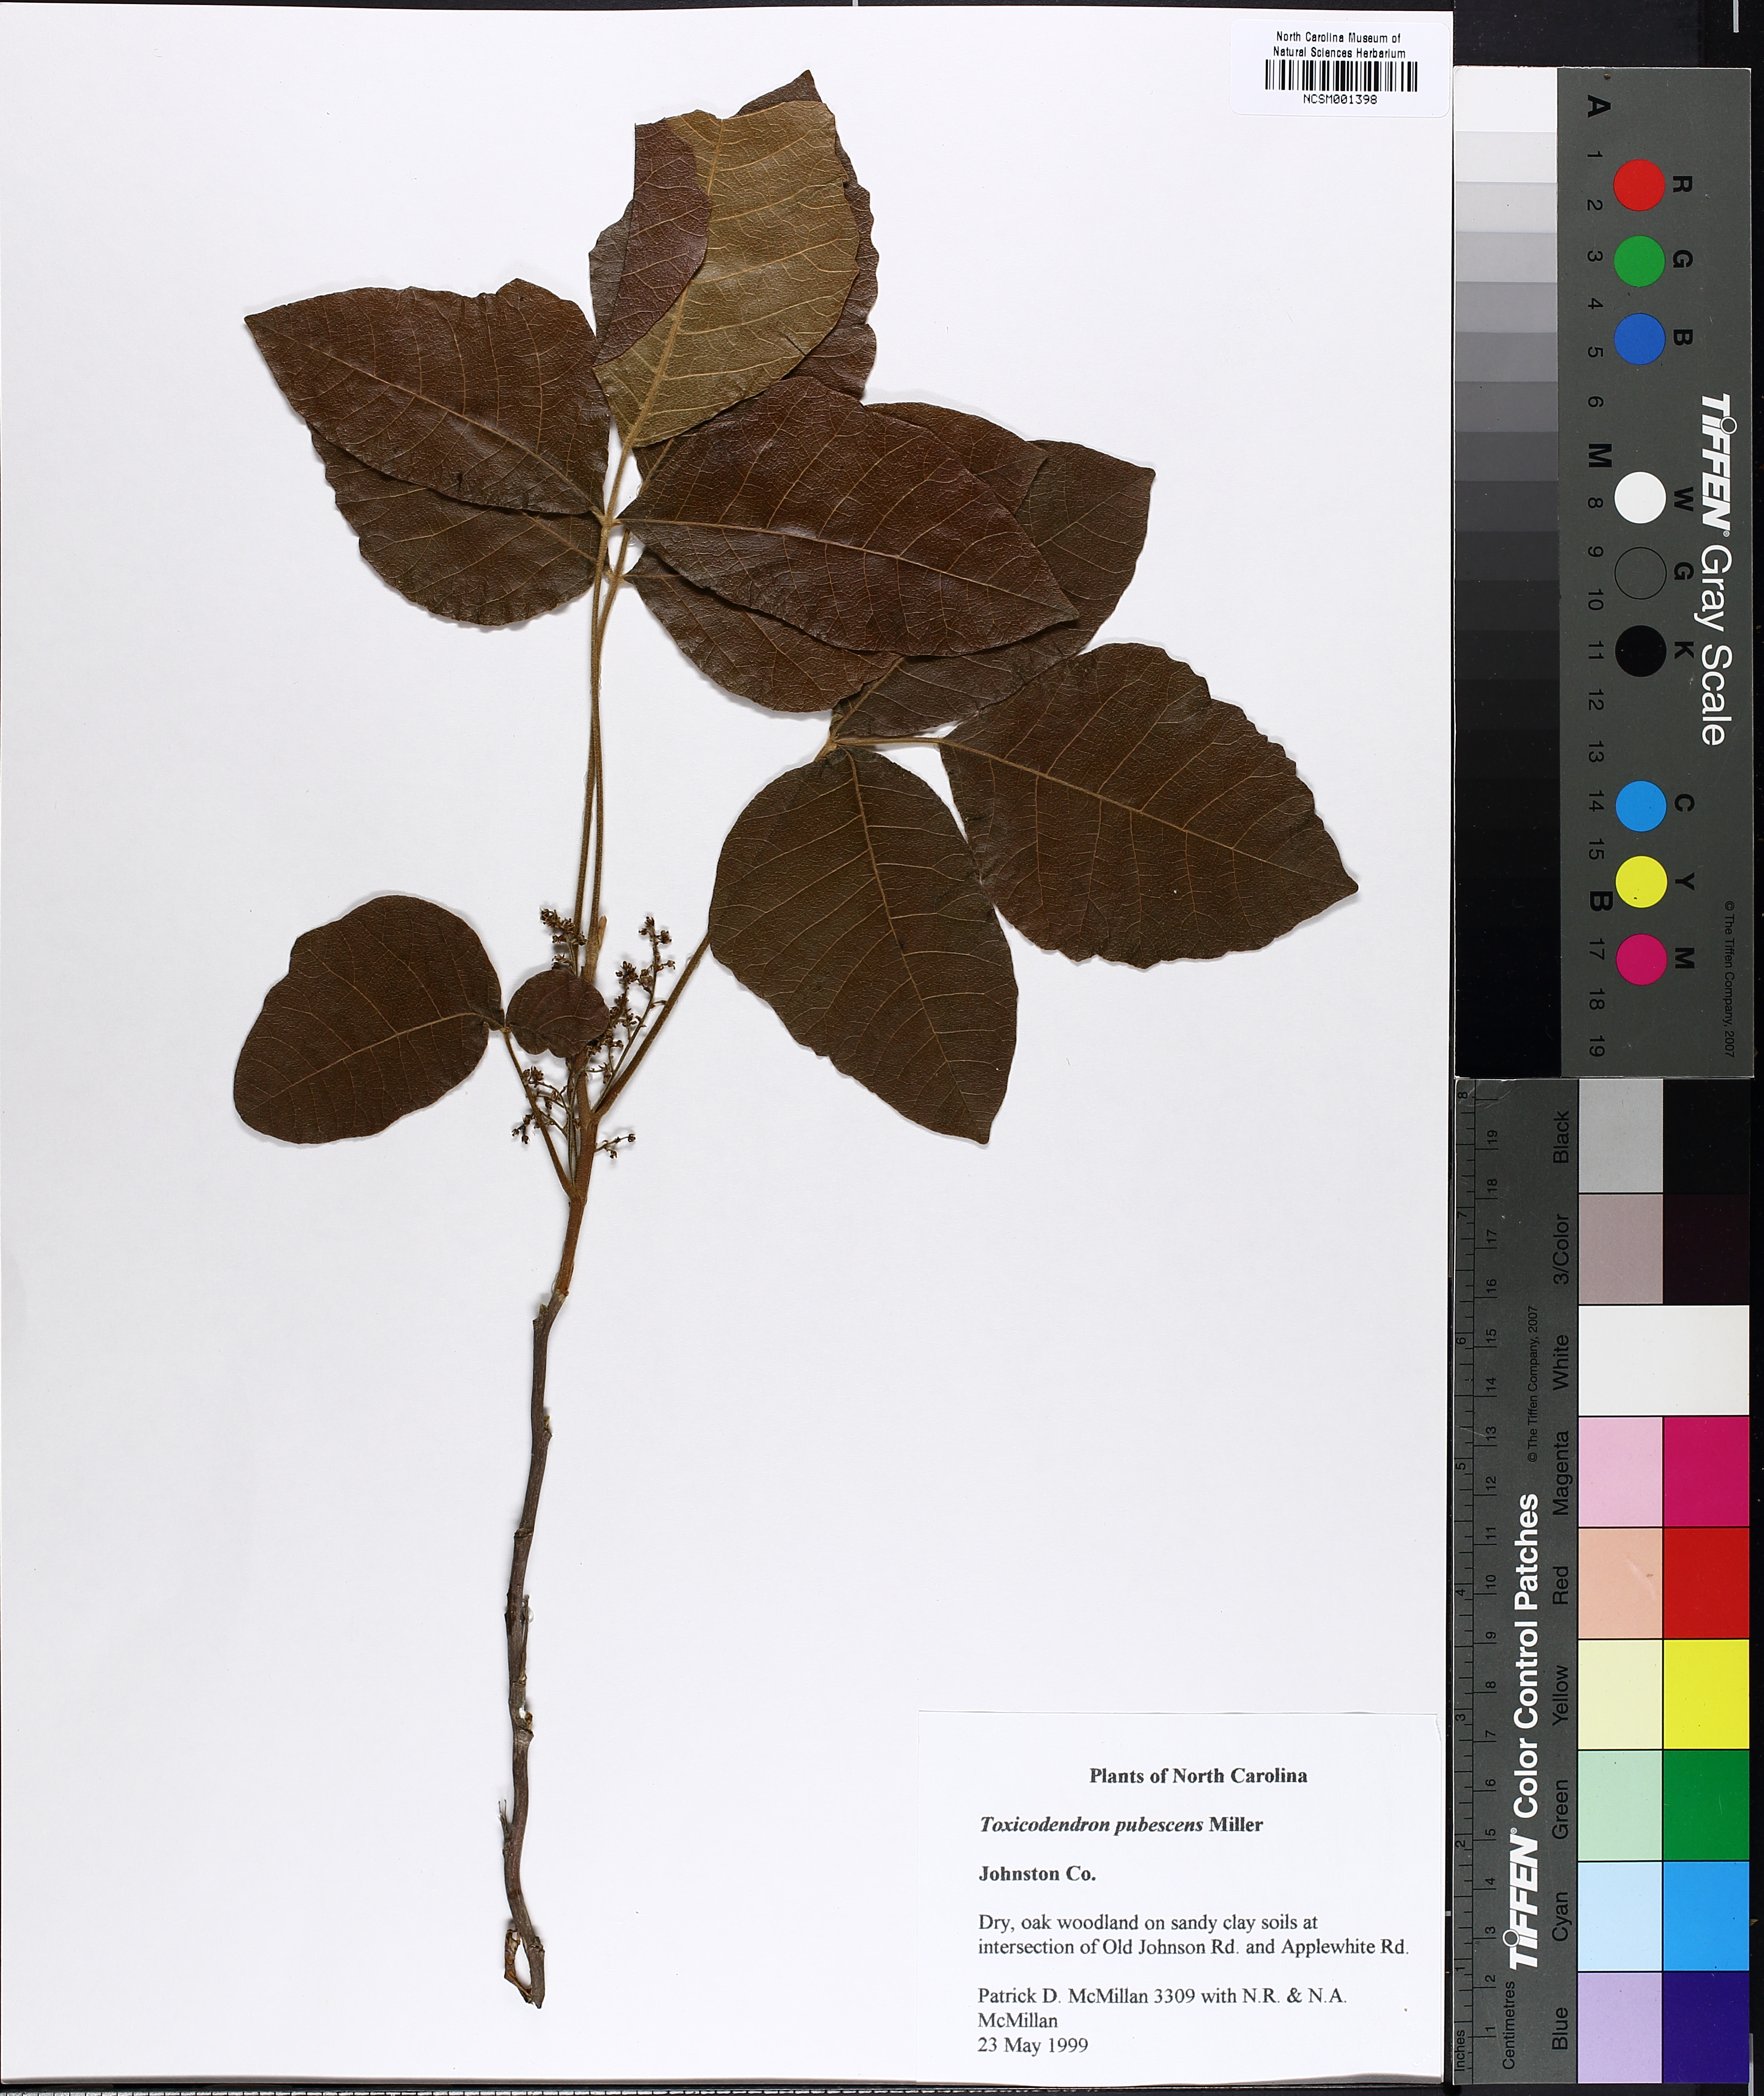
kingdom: Plantae
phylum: Tracheophyta
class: Magnoliopsida
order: Sapindales
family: Anacardiaceae
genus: Toxicodendron
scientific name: Toxicodendron pubescens
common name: Eastern poison-oak
